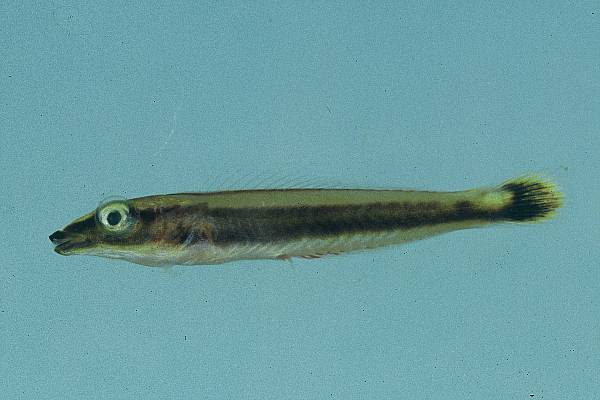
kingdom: Animalia
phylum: Chordata
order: Perciformes
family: Labridae
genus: Hologymnosus
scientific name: Hologymnosus annulatus
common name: Ring wrasse
